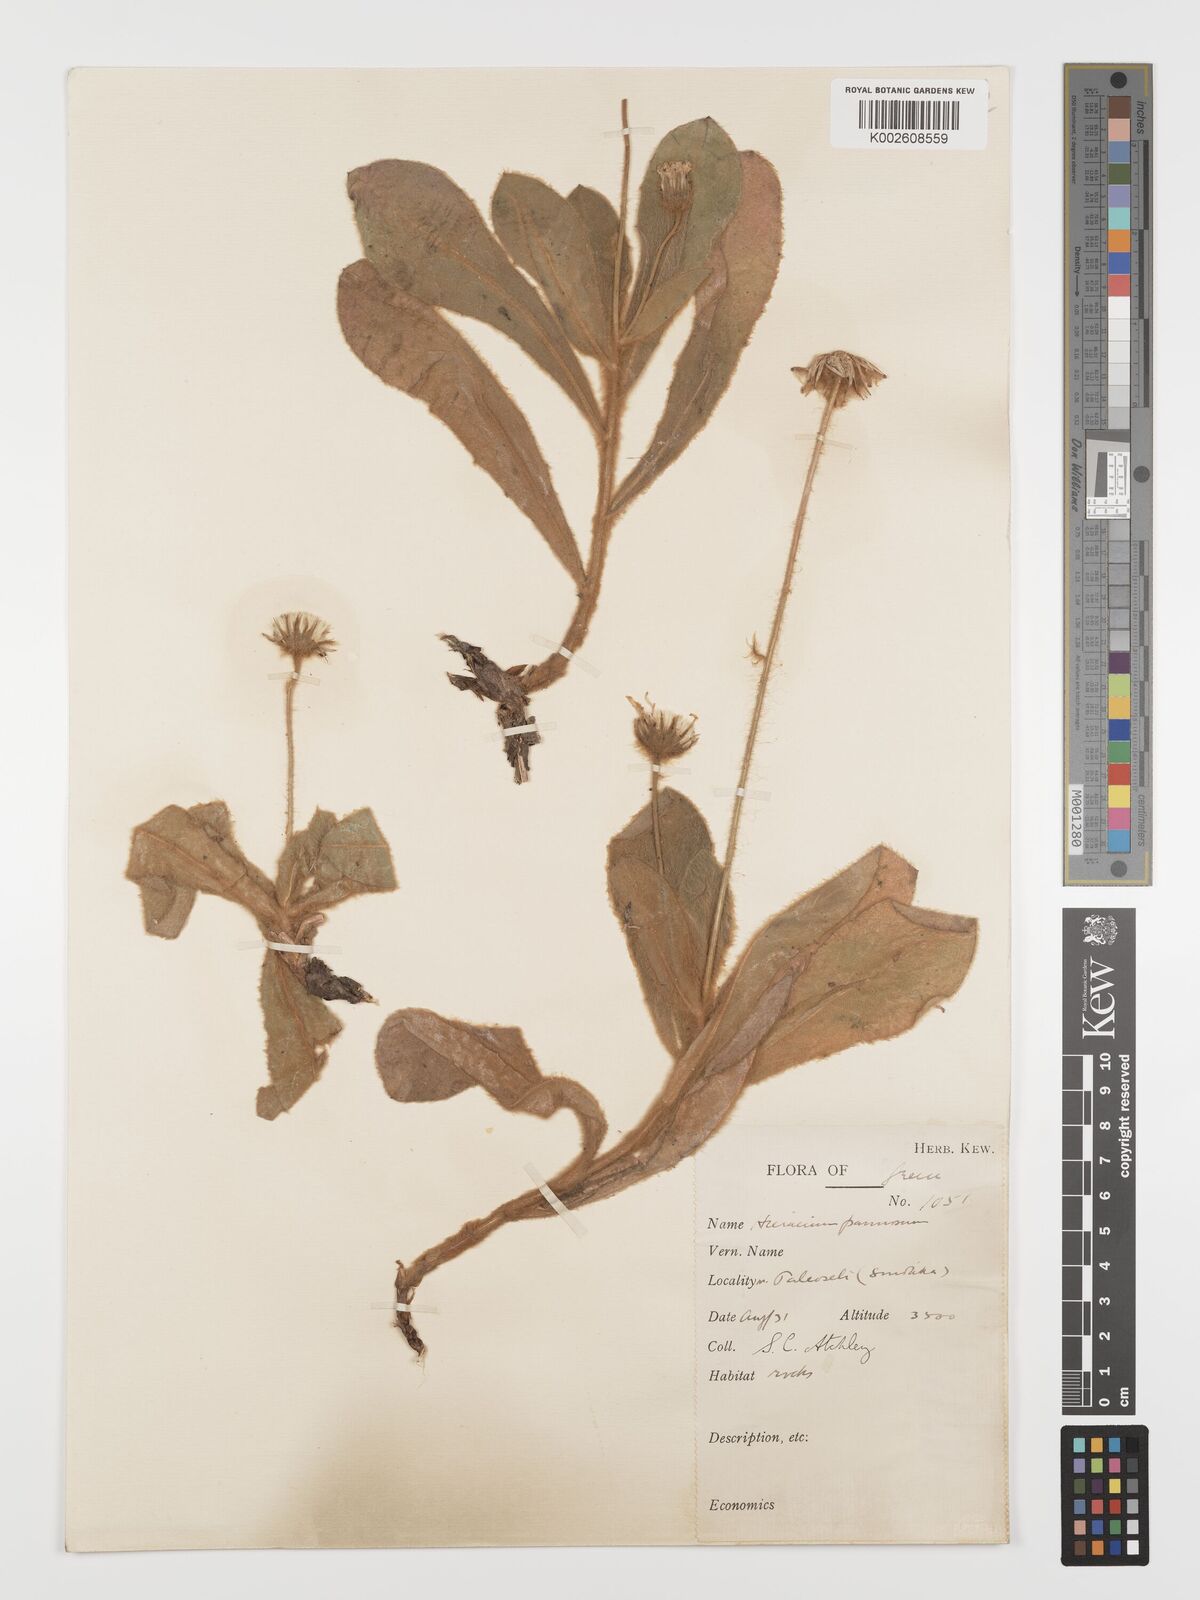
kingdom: Plantae
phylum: Tracheophyta
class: Magnoliopsida
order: Asterales
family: Asteraceae
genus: Hieracium
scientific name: Hieracium pannosum
